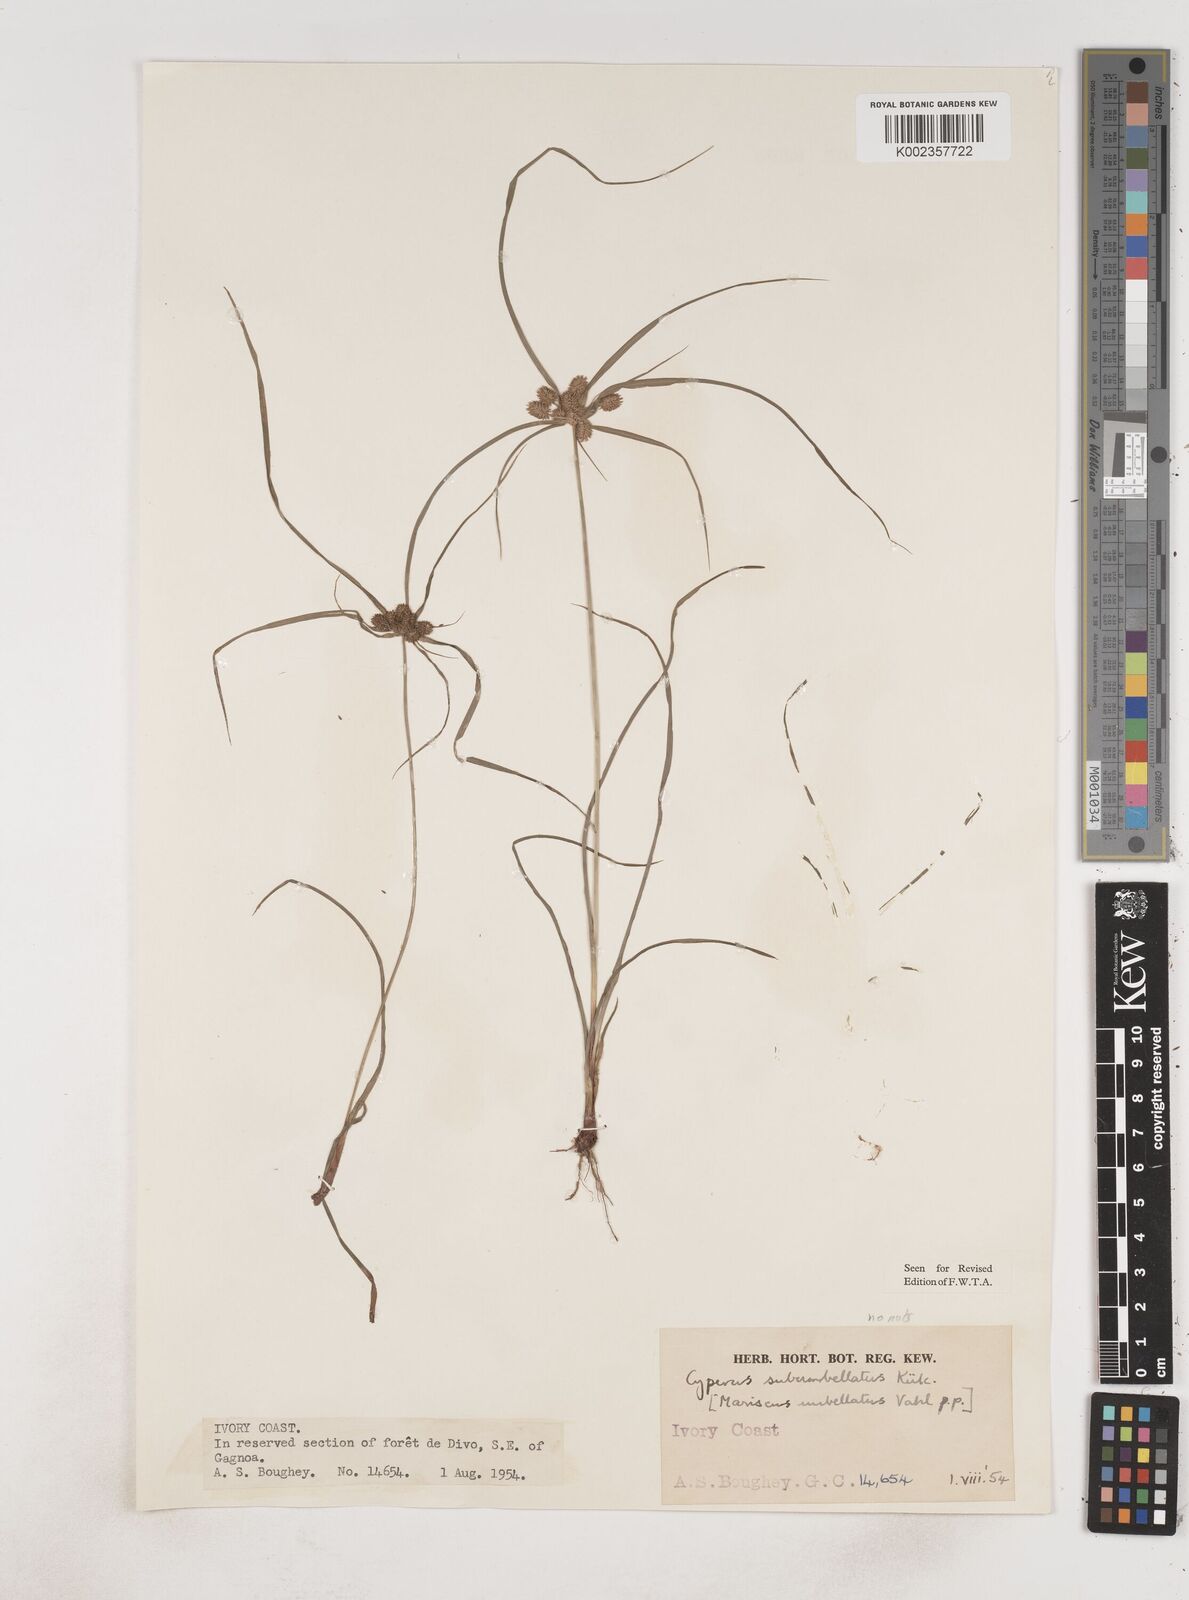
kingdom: Plantae
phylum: Tracheophyta
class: Liliopsida
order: Poales
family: Cyperaceae
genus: Cyperus
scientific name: Cyperus sublimis
